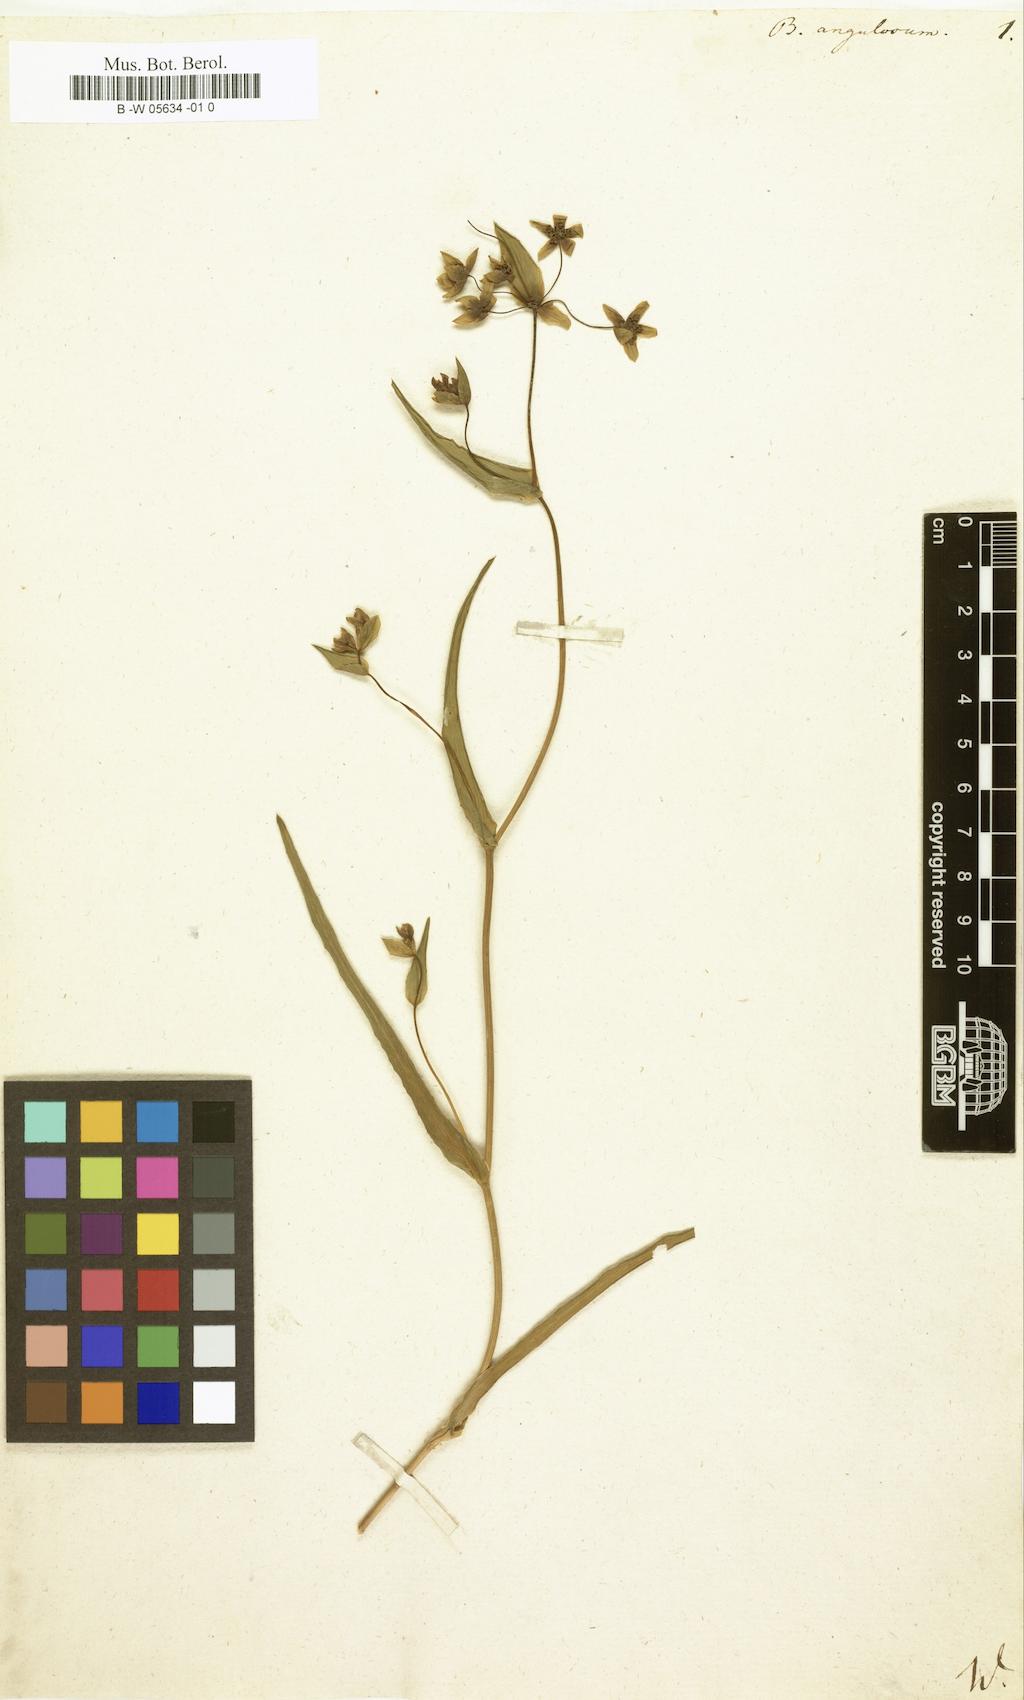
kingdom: Plantae
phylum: Tracheophyta
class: Magnoliopsida
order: Apiales
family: Apiaceae
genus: Bupleurum
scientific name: Bupleurum angulosum
